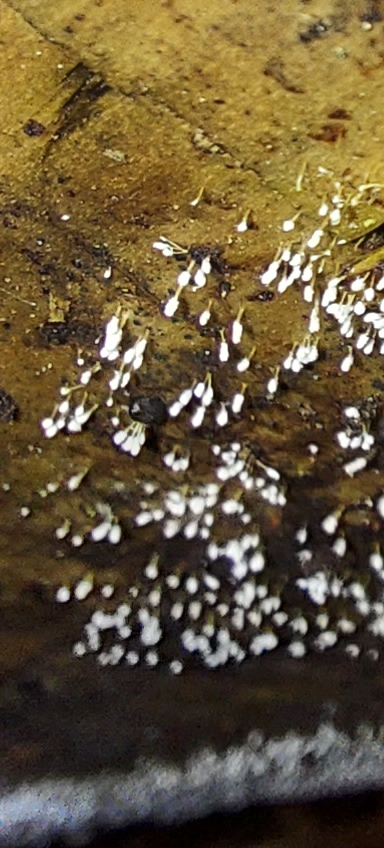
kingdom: Fungi
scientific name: Fungi
